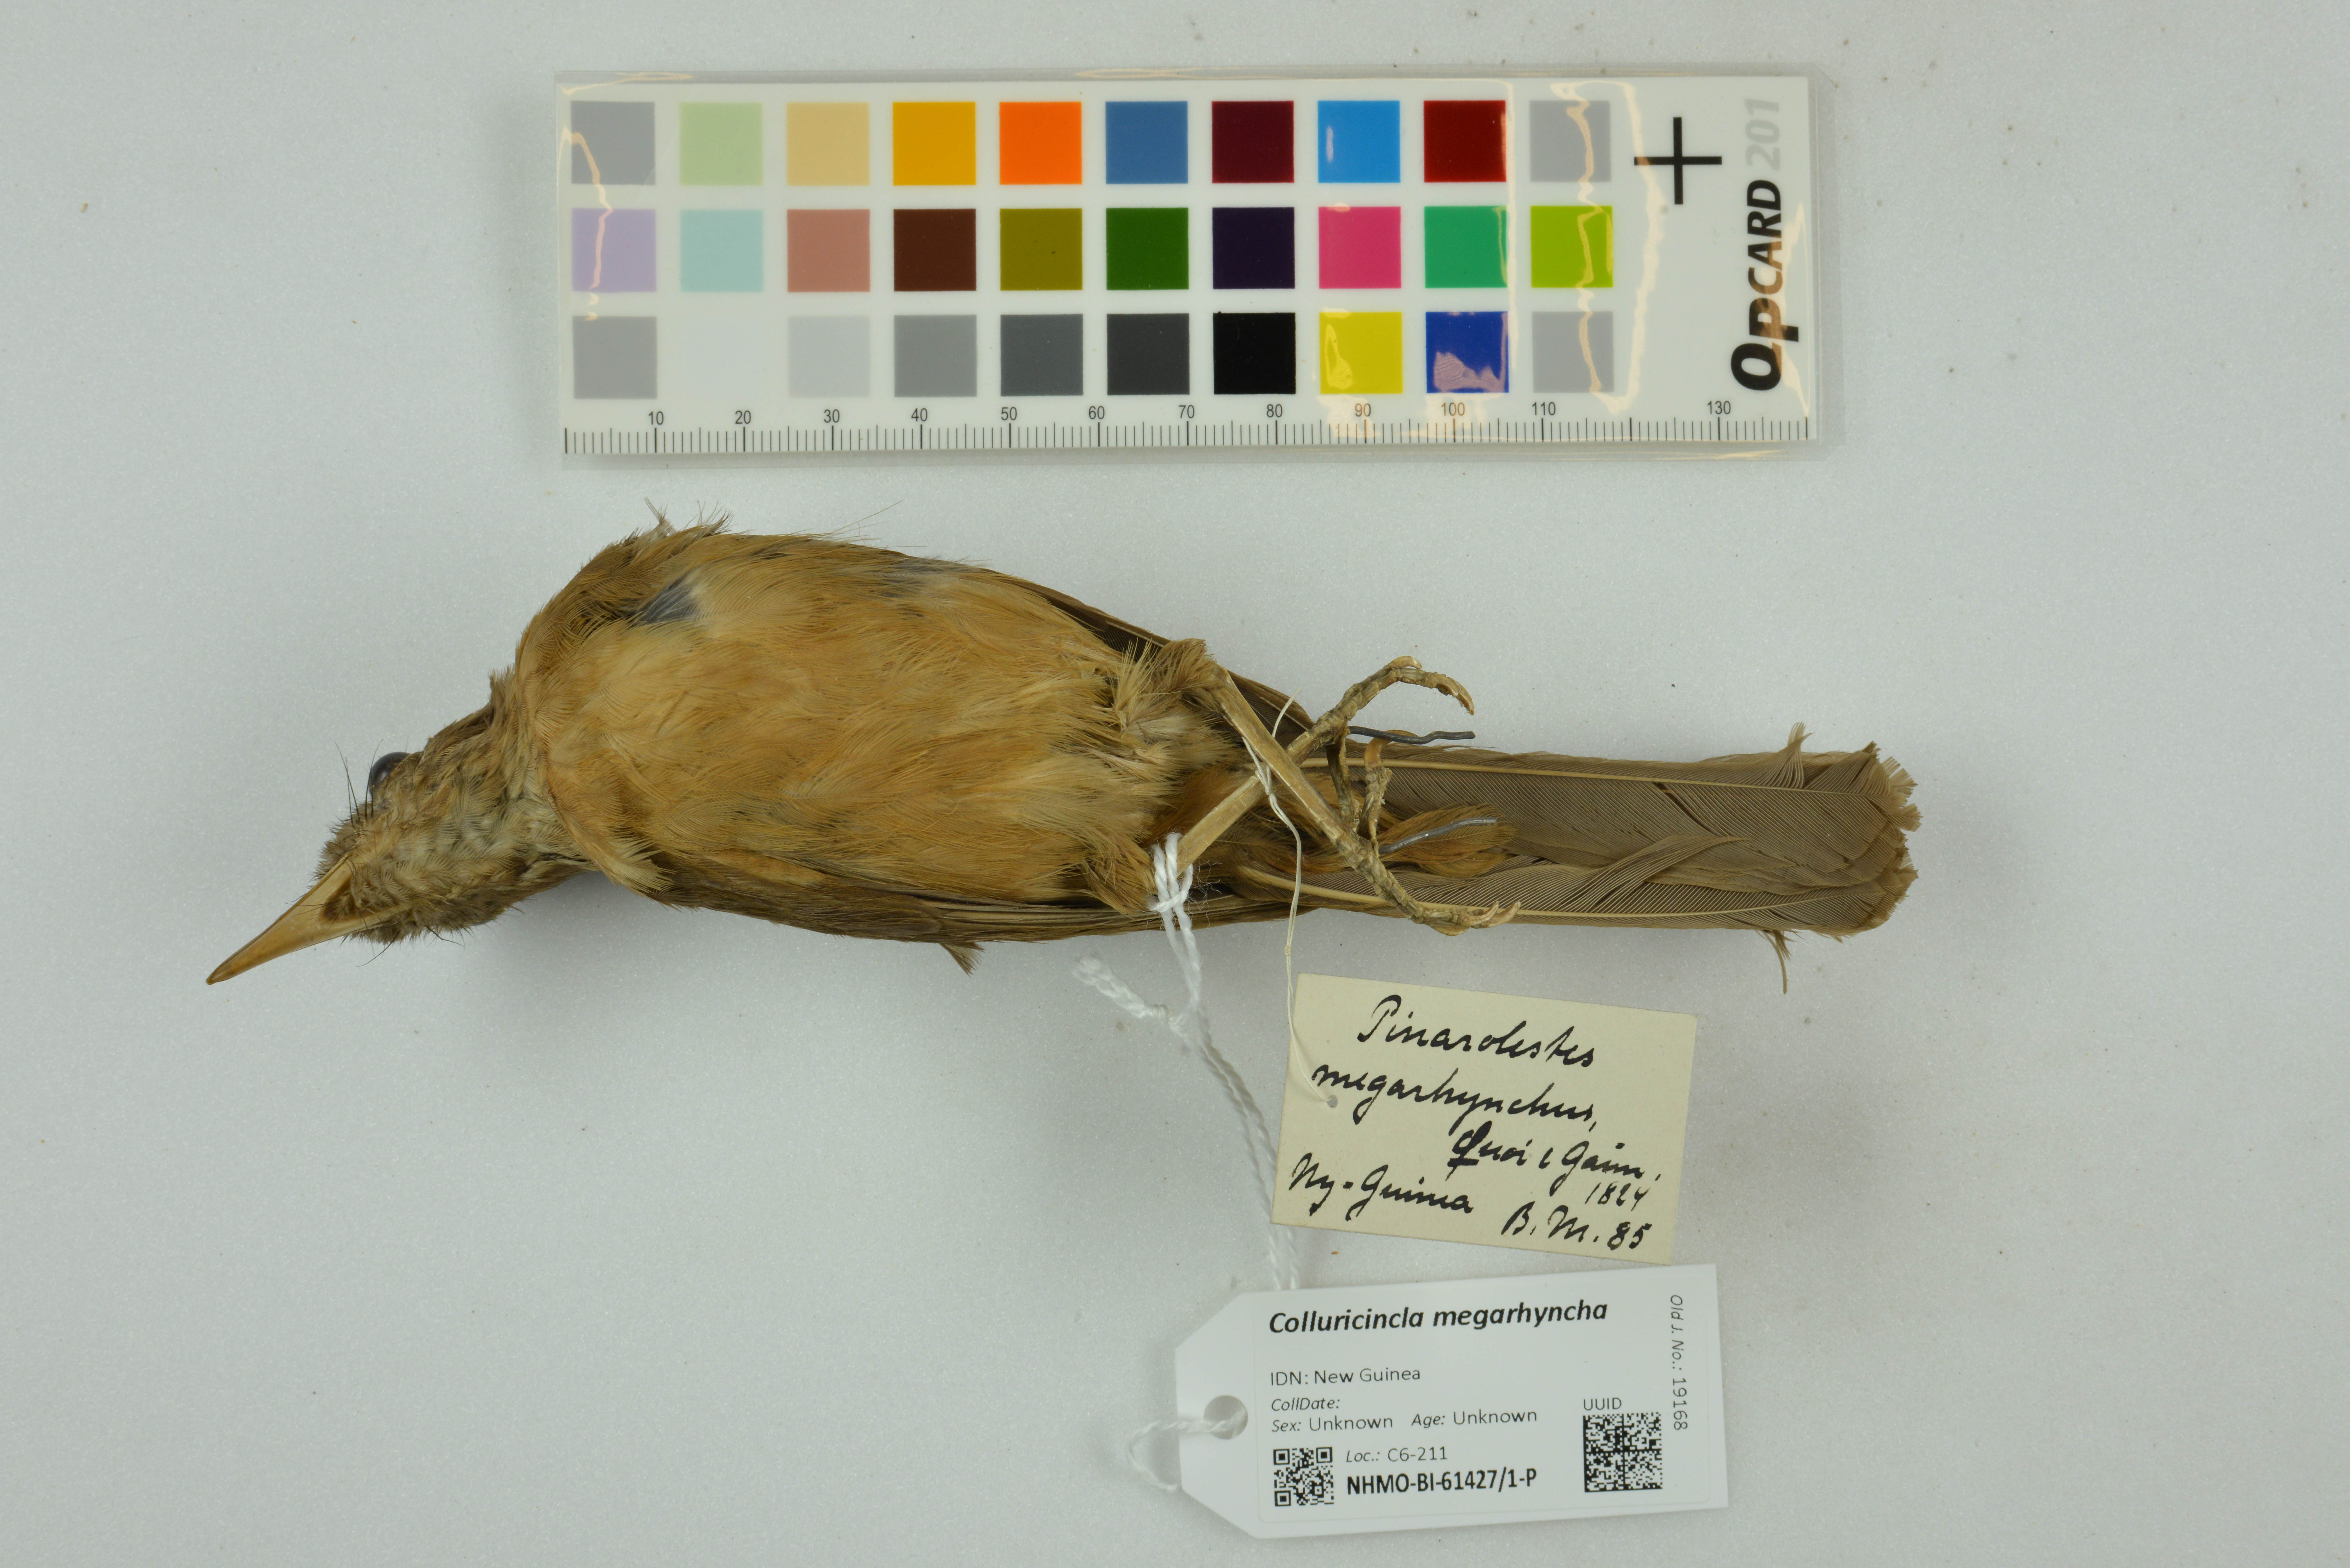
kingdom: Animalia
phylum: Chordata
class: Aves
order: Passeriformes
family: Pachycephalidae
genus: Colluricincla
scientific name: Colluricincla megarhyncha
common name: Little shrikethrush
